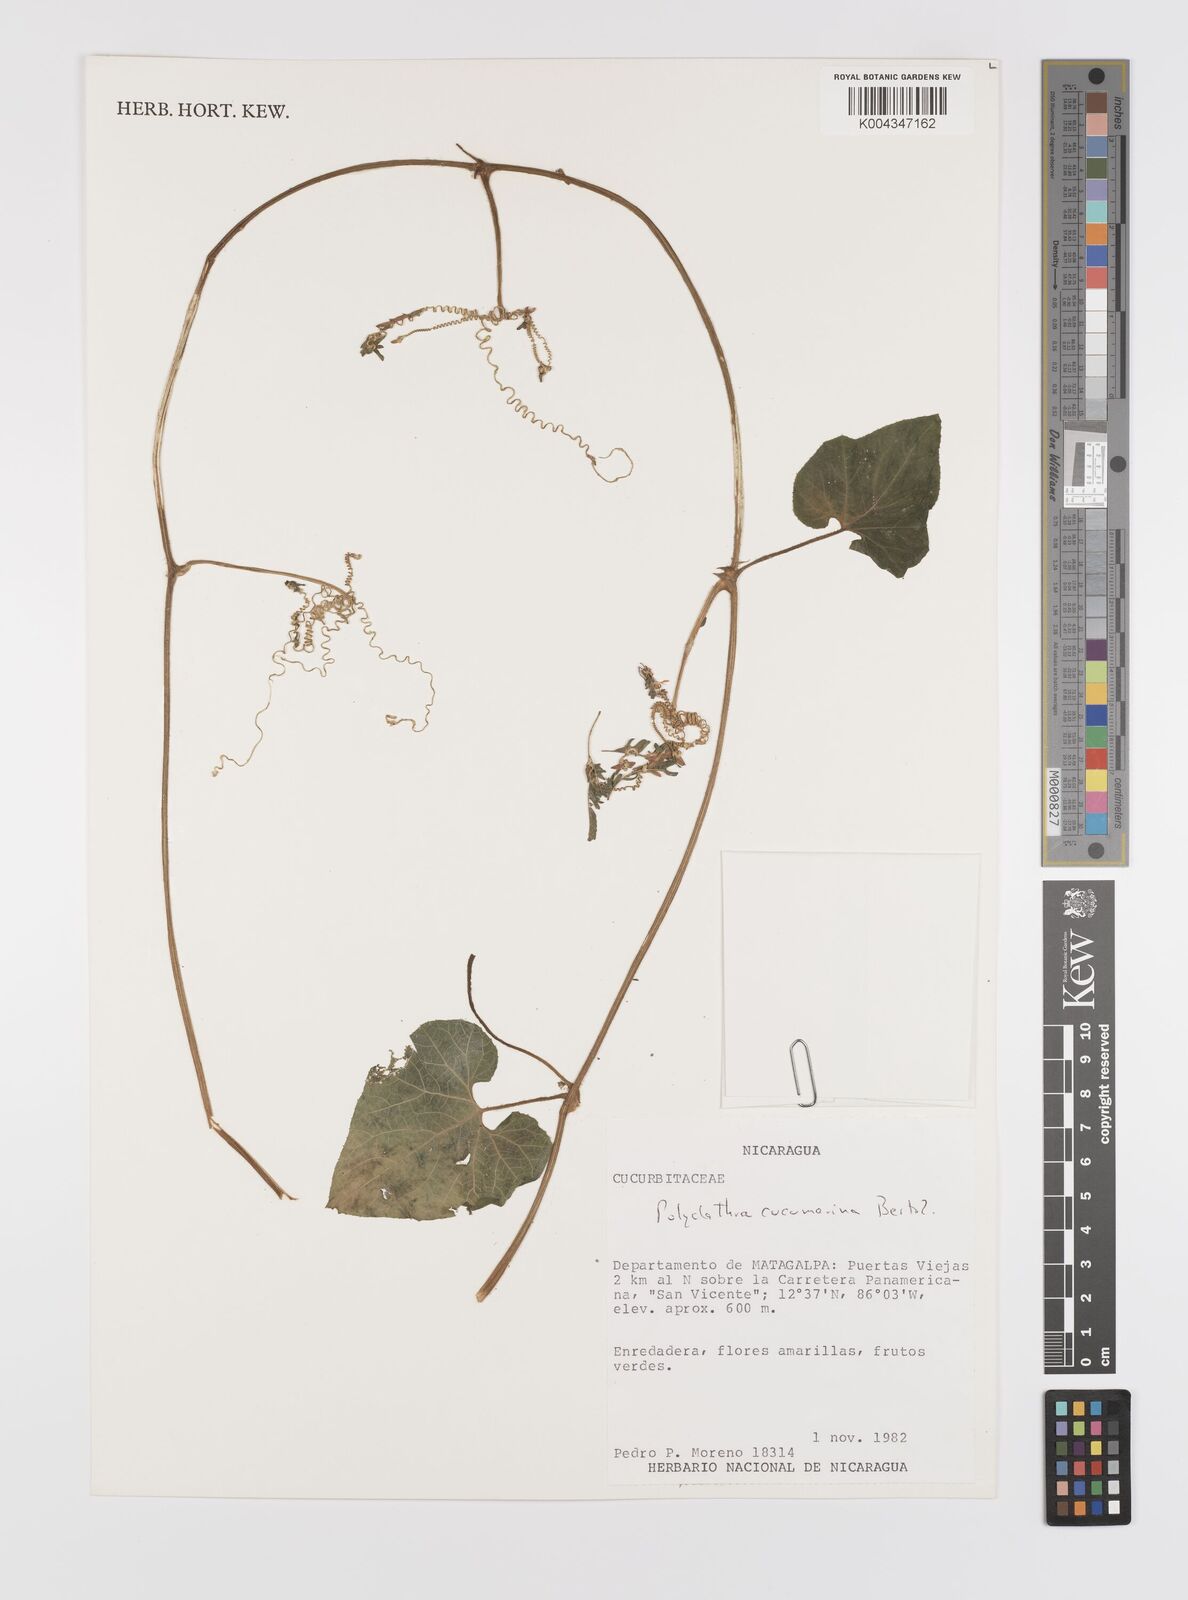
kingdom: Plantae
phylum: Tracheophyta
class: Magnoliopsida
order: Cucurbitales
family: Cucurbitaceae
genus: Polyclathra
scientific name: Polyclathra cucumerina
